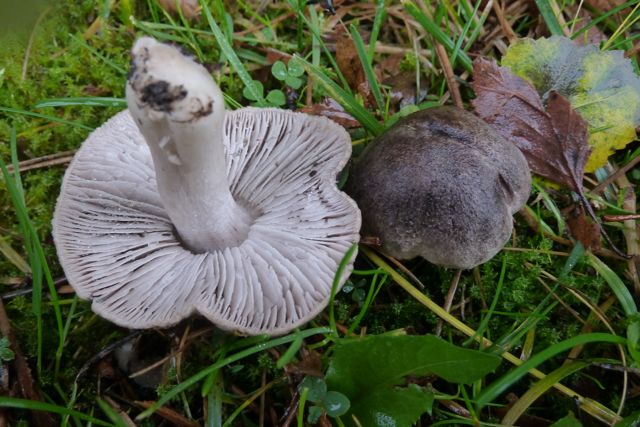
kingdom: Fungi
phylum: Basidiomycota
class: Agaricomycetes
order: Agaricales
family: Tricholomataceae
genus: Tricholoma
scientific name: Tricholoma terreum
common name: jordfarvet ridderhat
